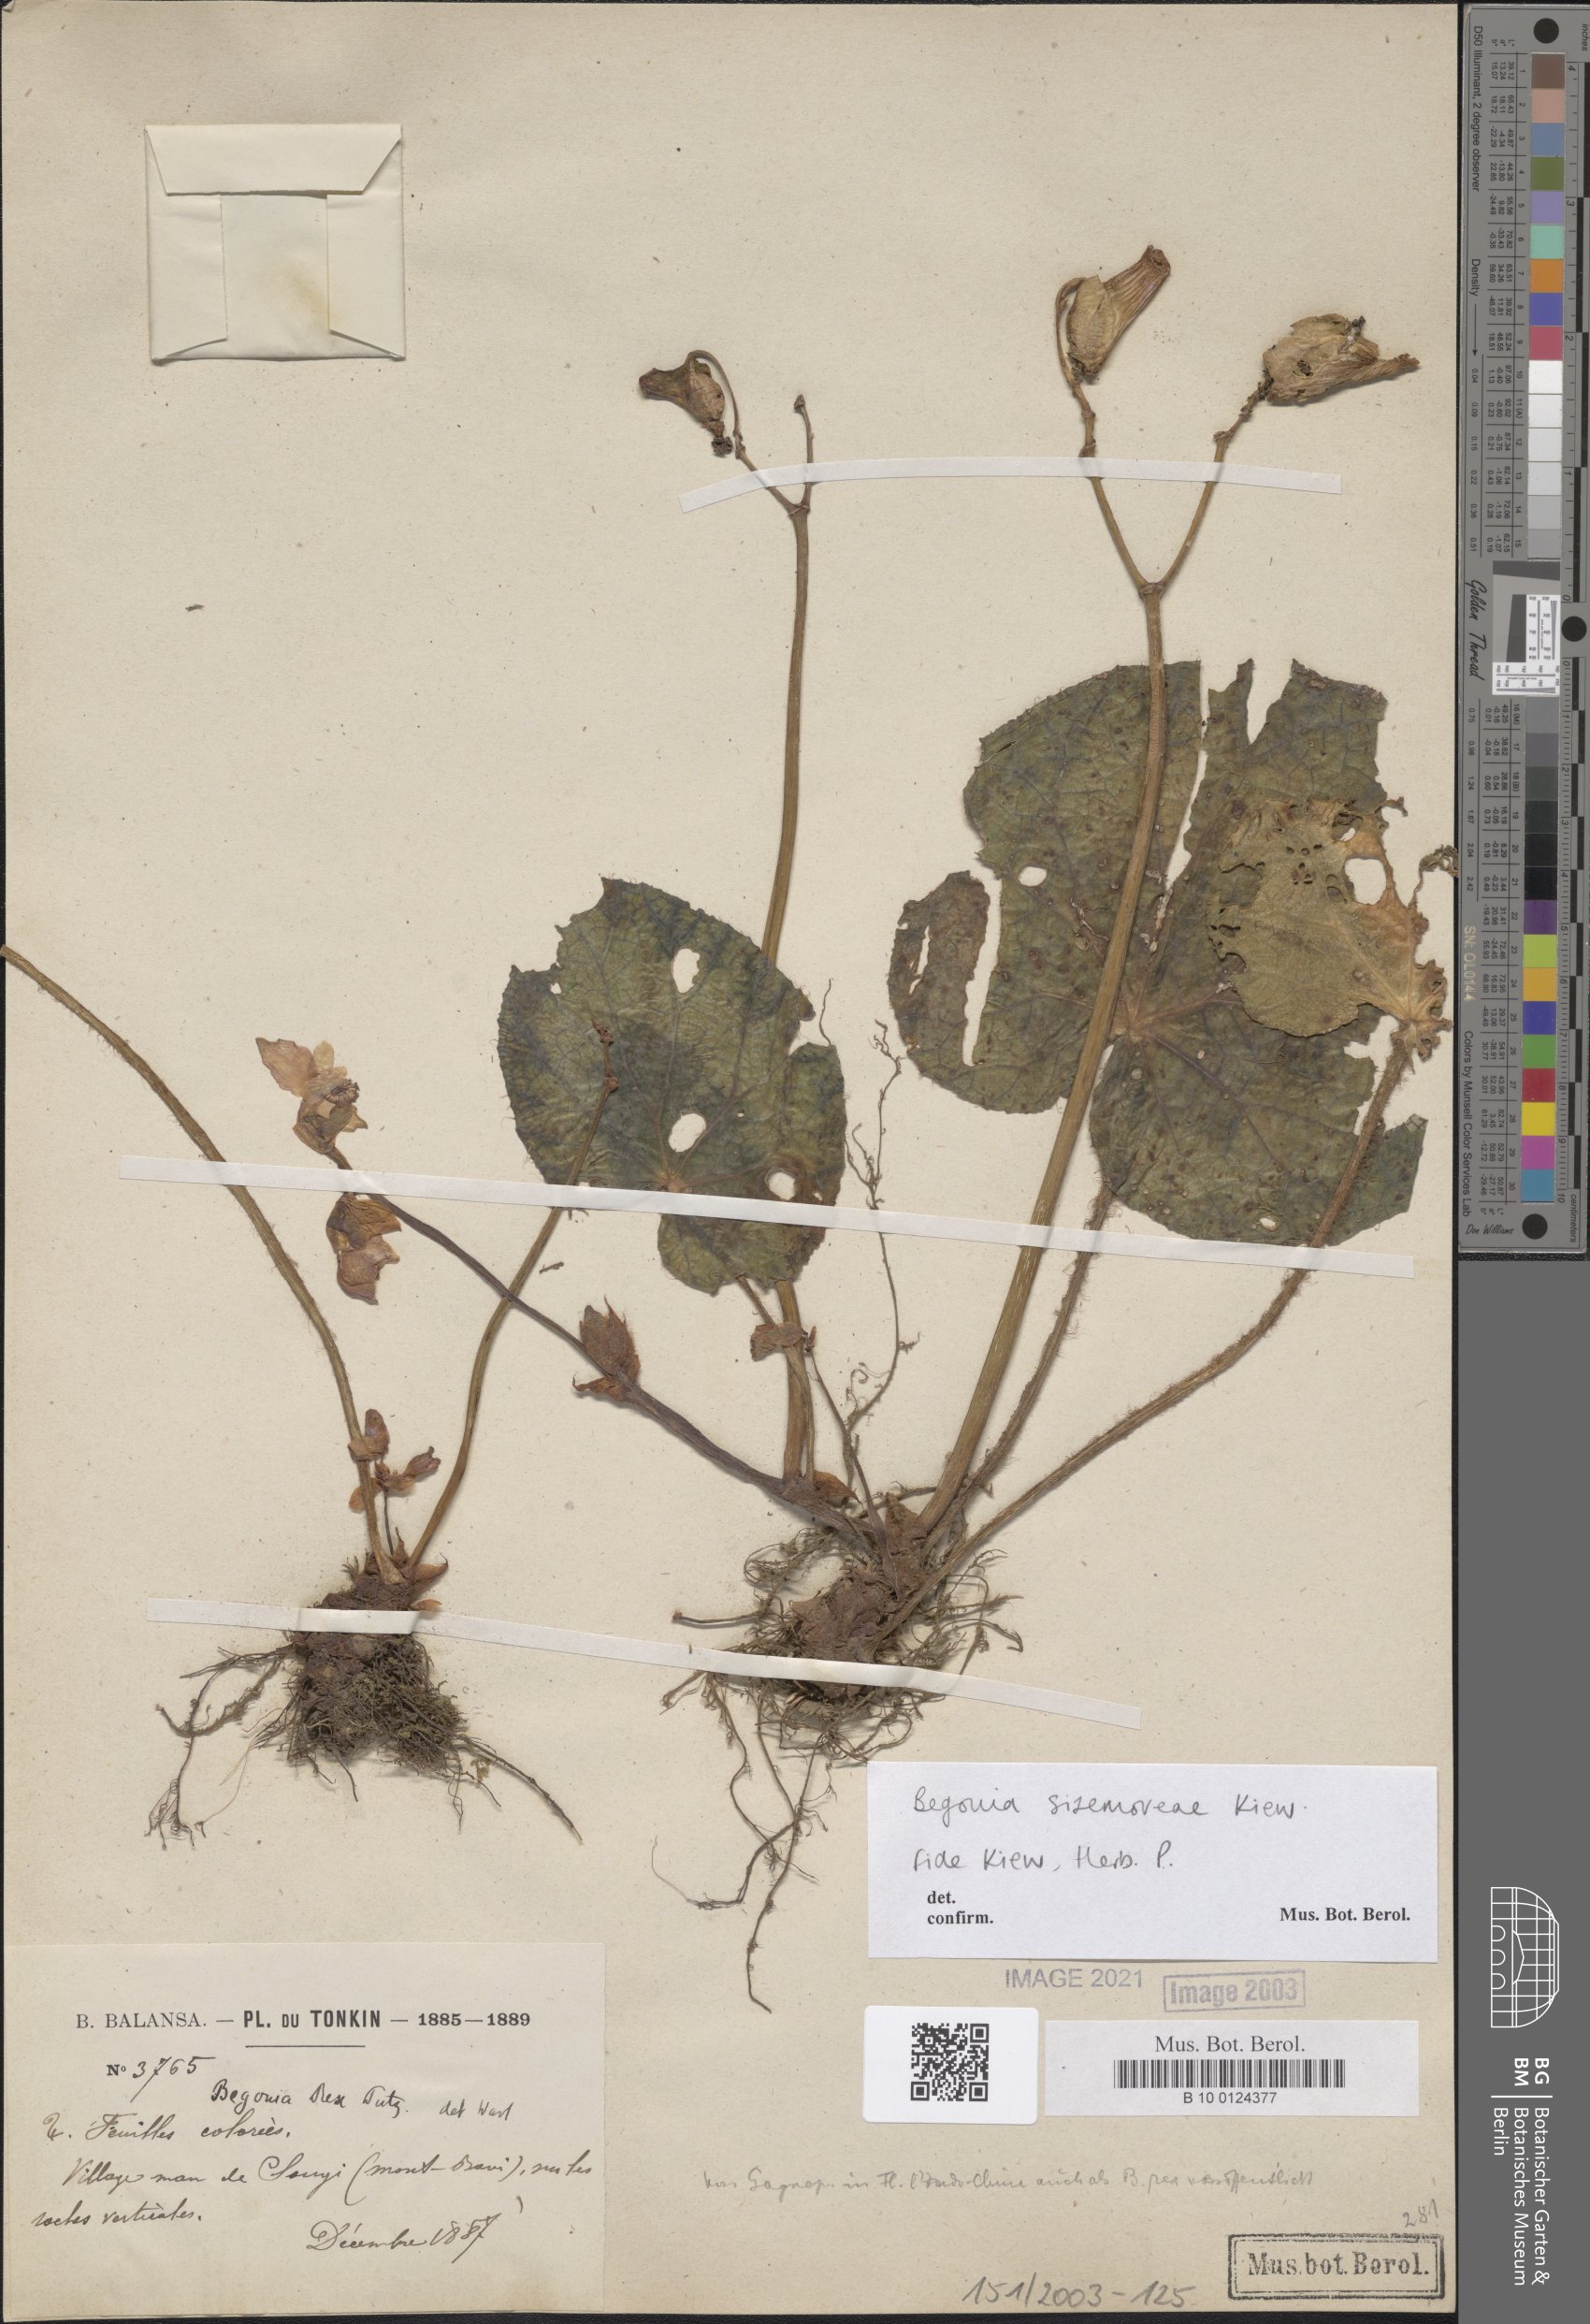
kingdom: Plantae
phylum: Tracheophyta
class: Magnoliopsida
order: Cucurbitales
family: Begoniaceae
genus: Begonia
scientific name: Begonia rex
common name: Painted-leaf begonia
